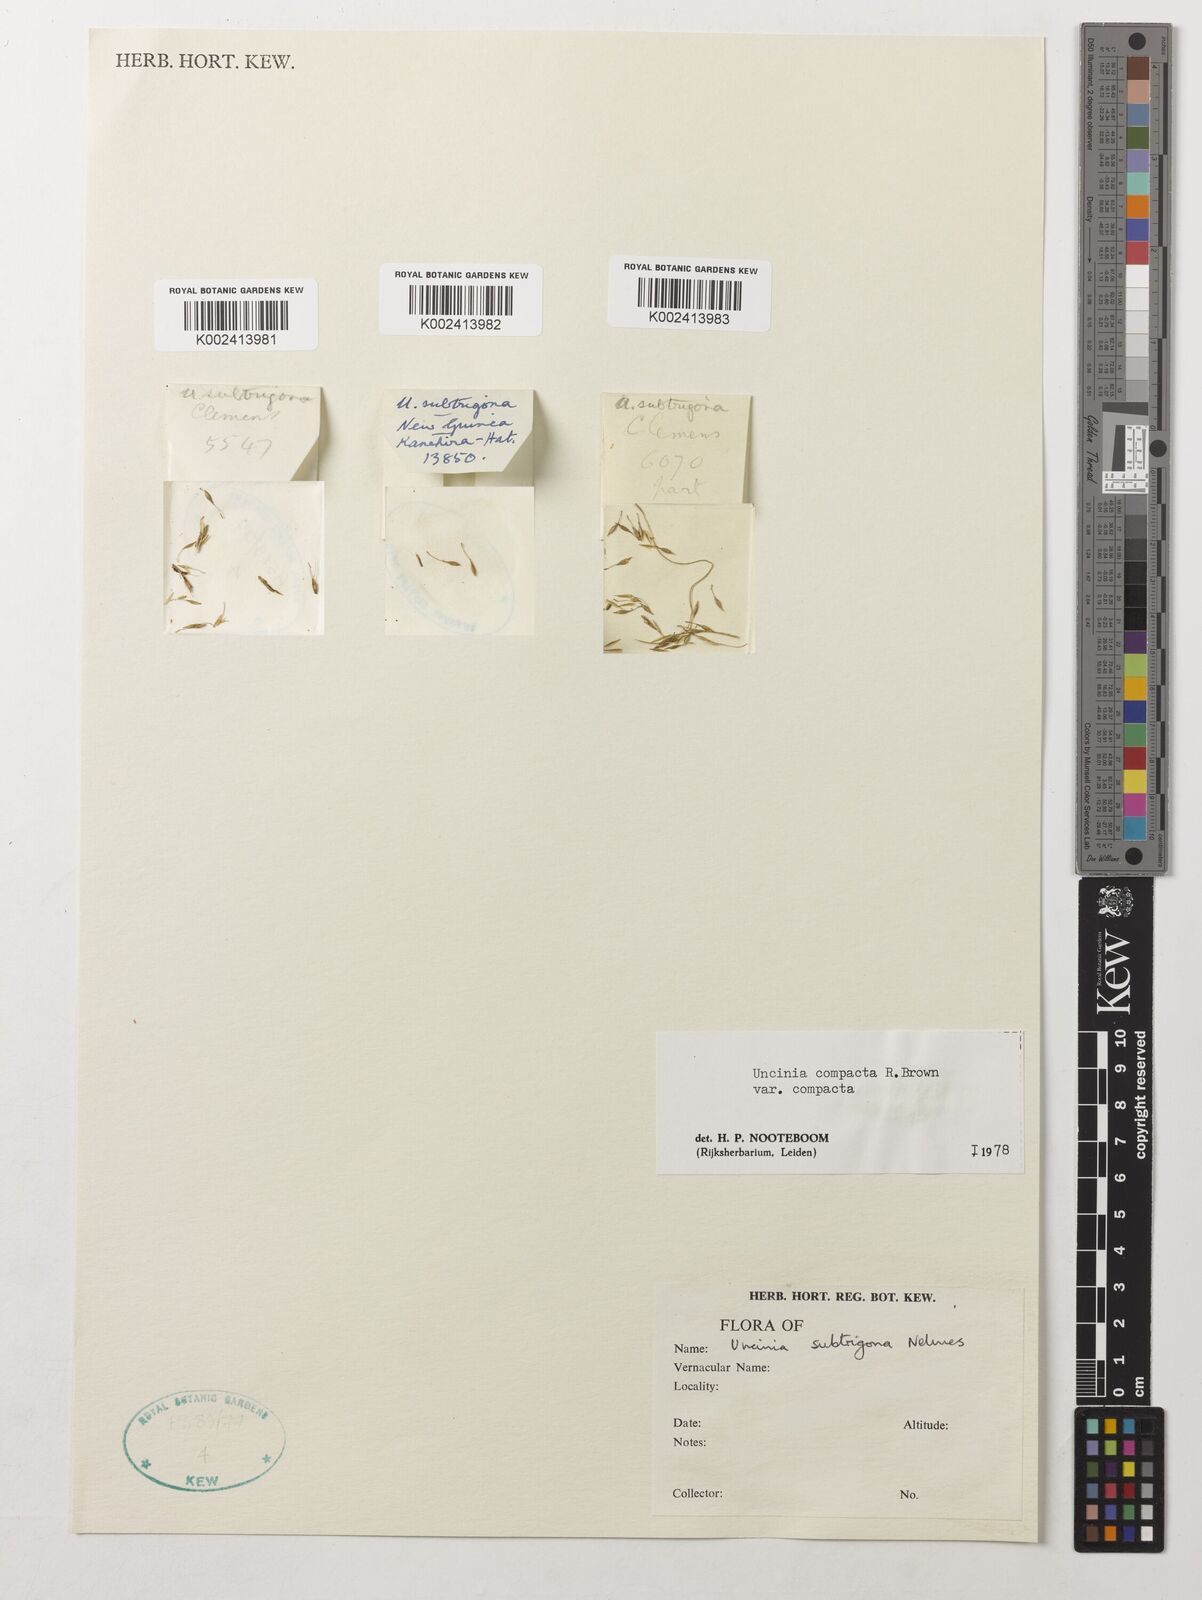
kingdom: Plantae
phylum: Tracheophyta
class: Liliopsida
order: Poales
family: Cyperaceae
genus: Carex
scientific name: Carex austrocompacta
